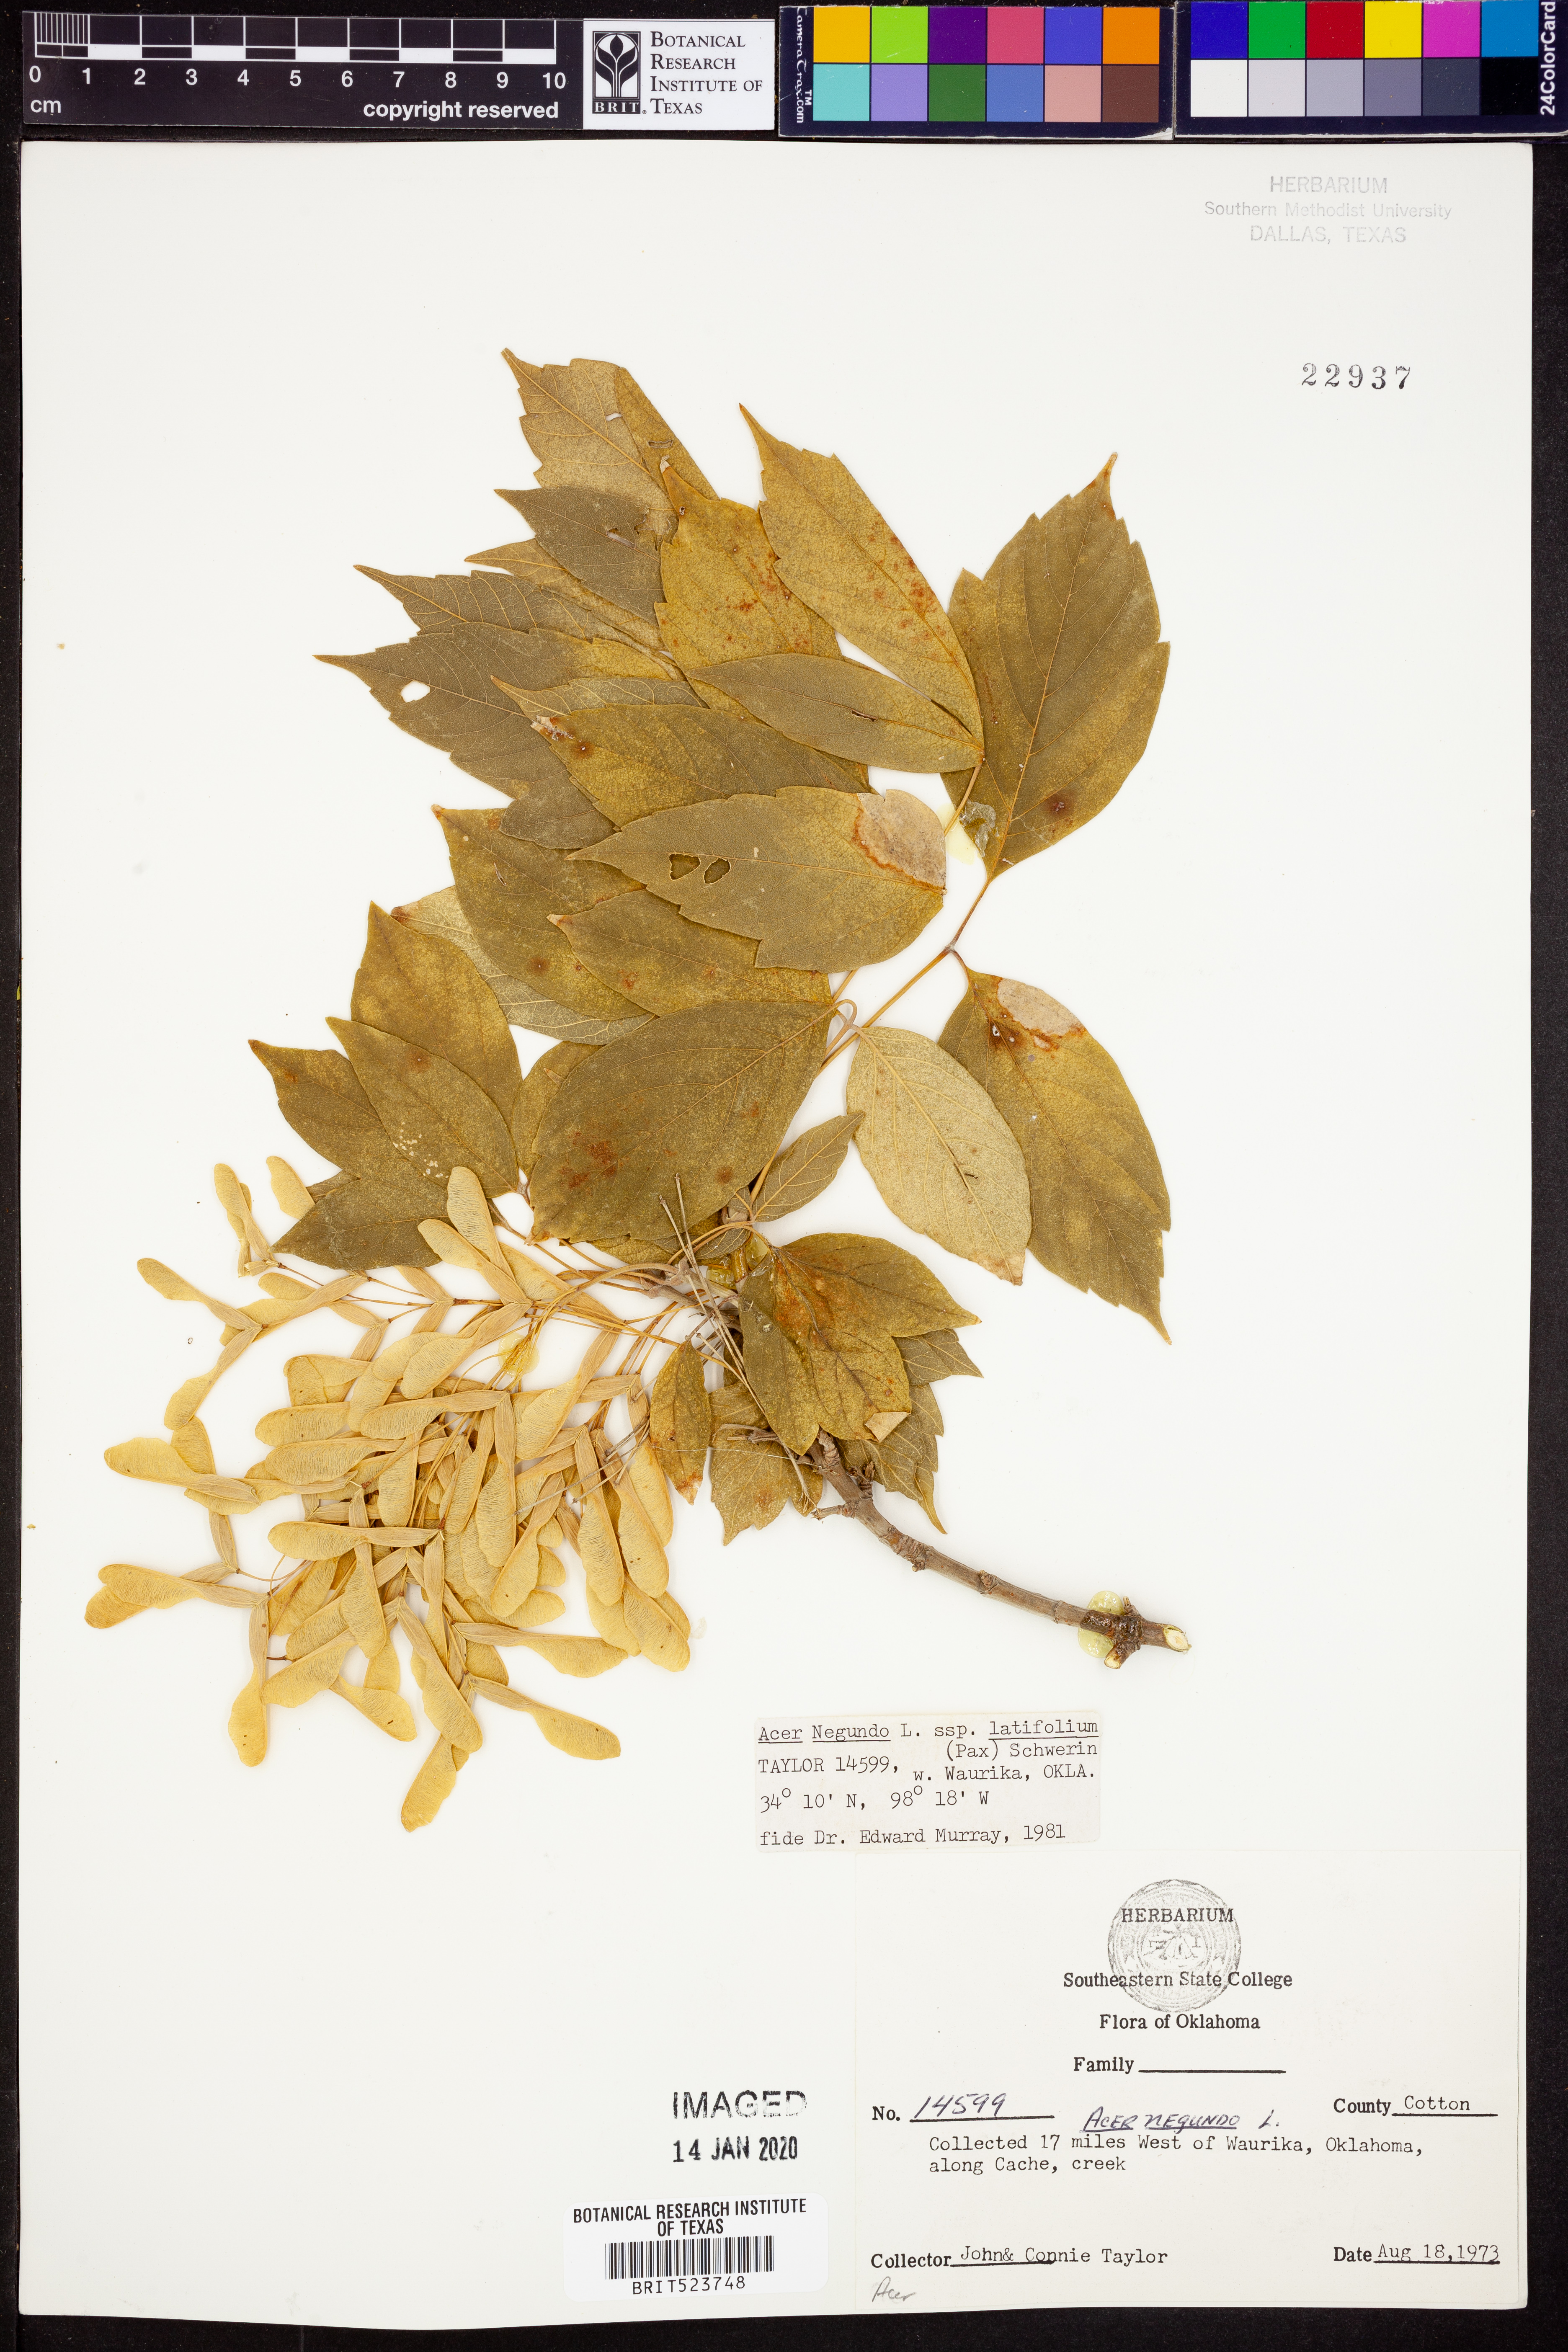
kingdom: Plantae
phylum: Tracheophyta
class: Magnoliopsida
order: Sapindales
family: Sapindaceae
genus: Acer
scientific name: Acer negundo
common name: Ashleaf maple
